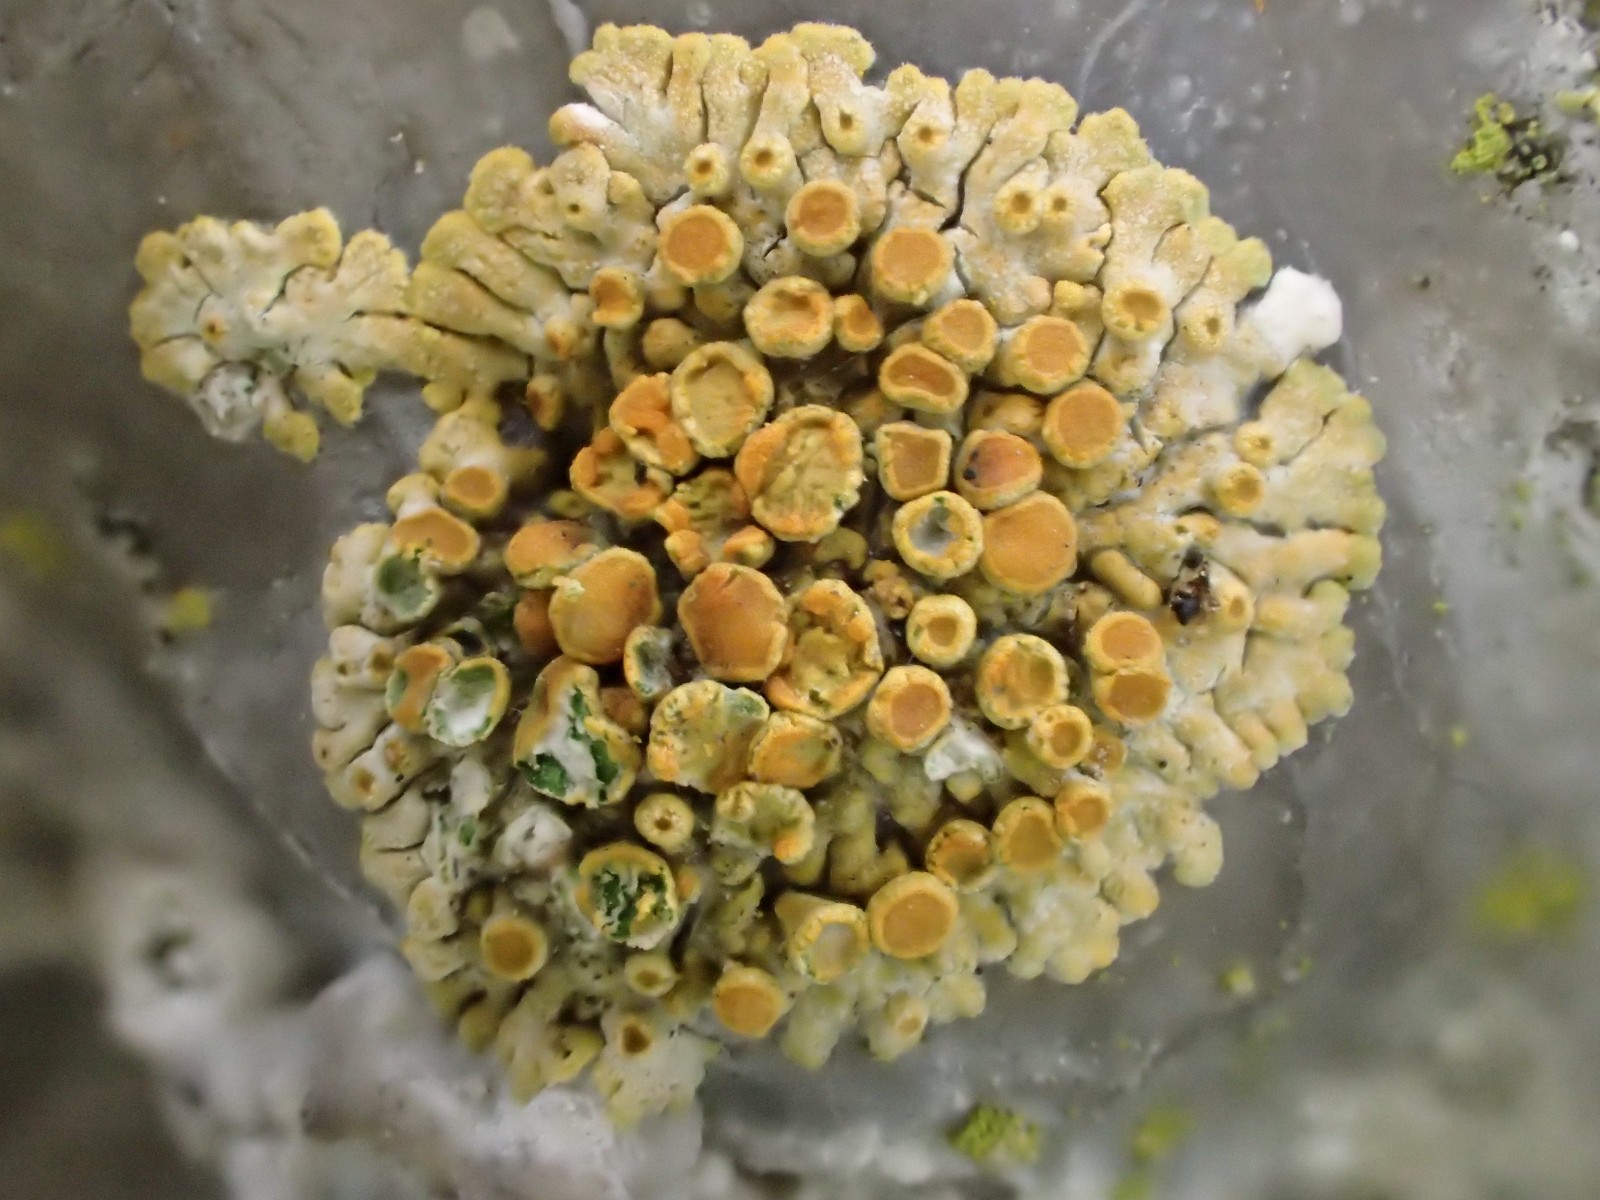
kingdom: Fungi
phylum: Ascomycota
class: Lecanoromycetes
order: Teloschistales
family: Teloschistaceae
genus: Calogaya
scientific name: Calogaya pusilla
